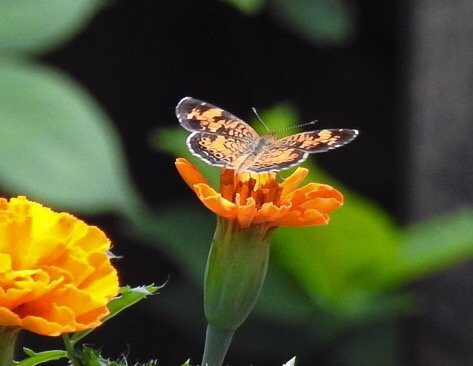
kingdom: Animalia
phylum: Arthropoda
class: Insecta
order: Lepidoptera
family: Nymphalidae
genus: Phyciodes
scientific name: Phyciodes tharos
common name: Pearl Crescent
